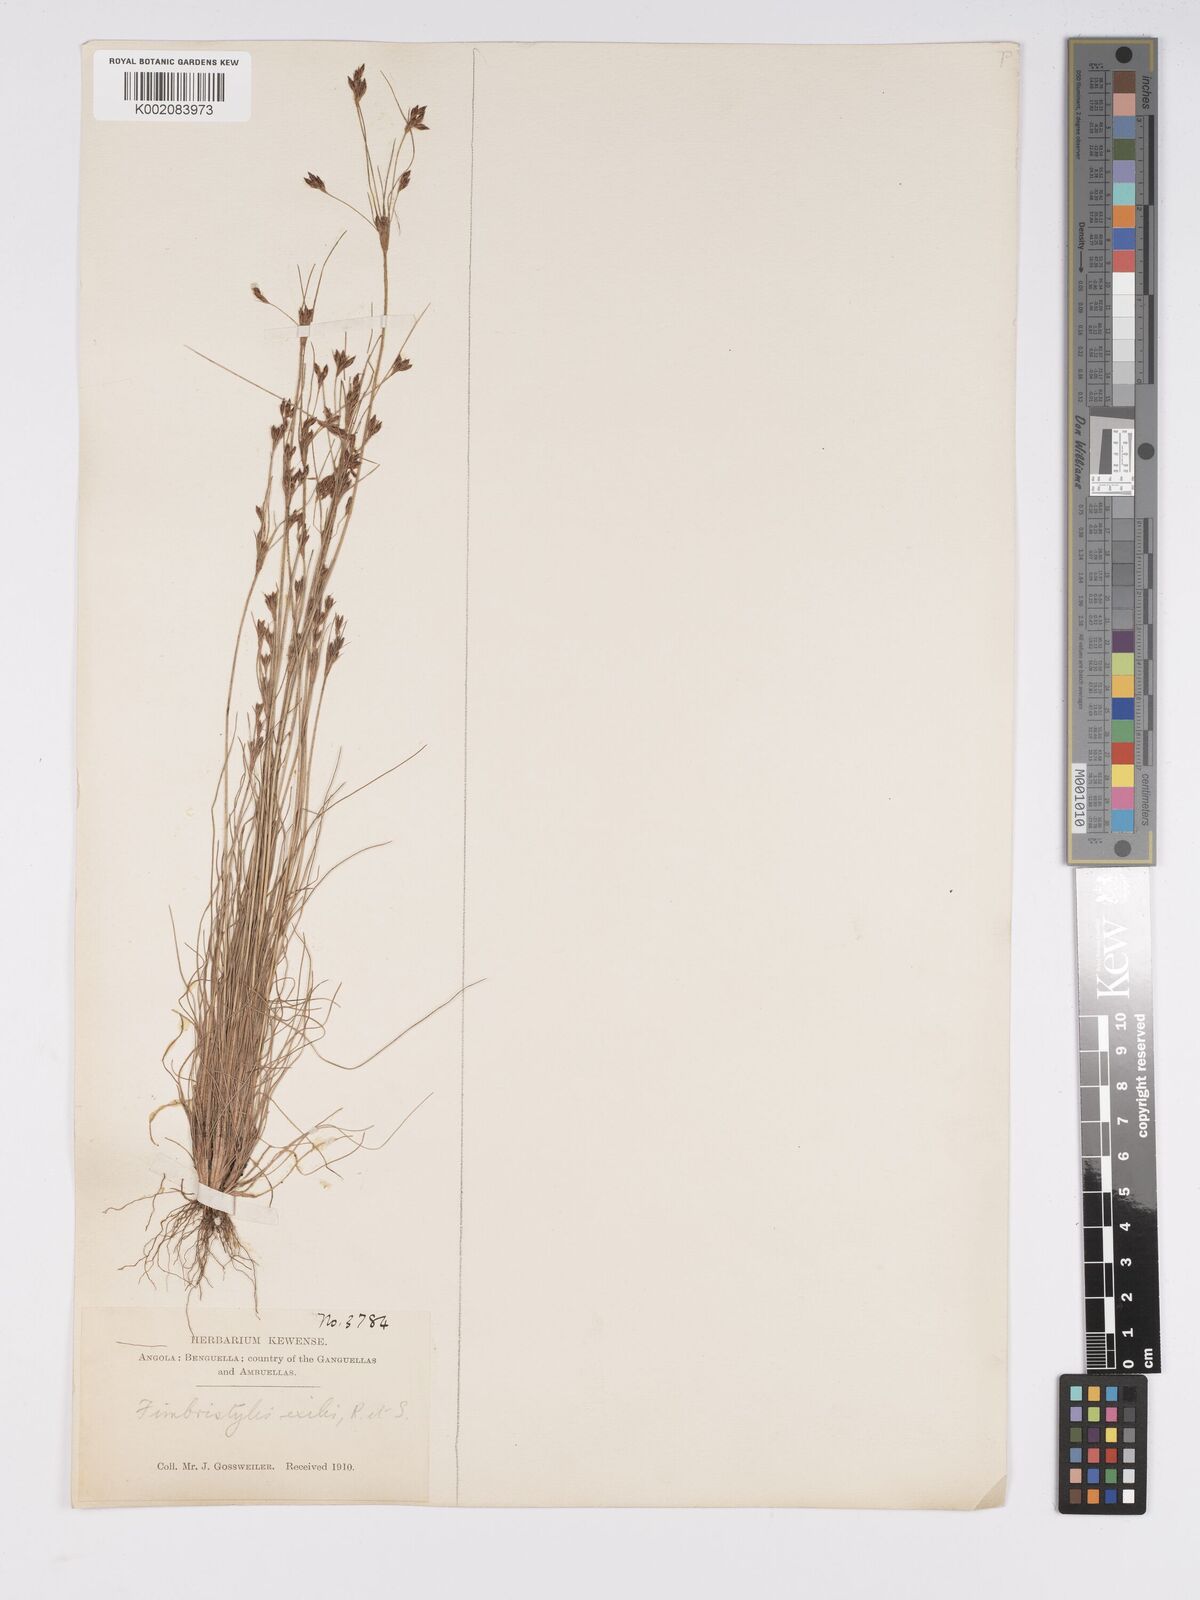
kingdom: Plantae
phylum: Tracheophyta
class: Liliopsida
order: Poales
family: Cyperaceae
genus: Bulbostylis
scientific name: Bulbostylis hispidula
